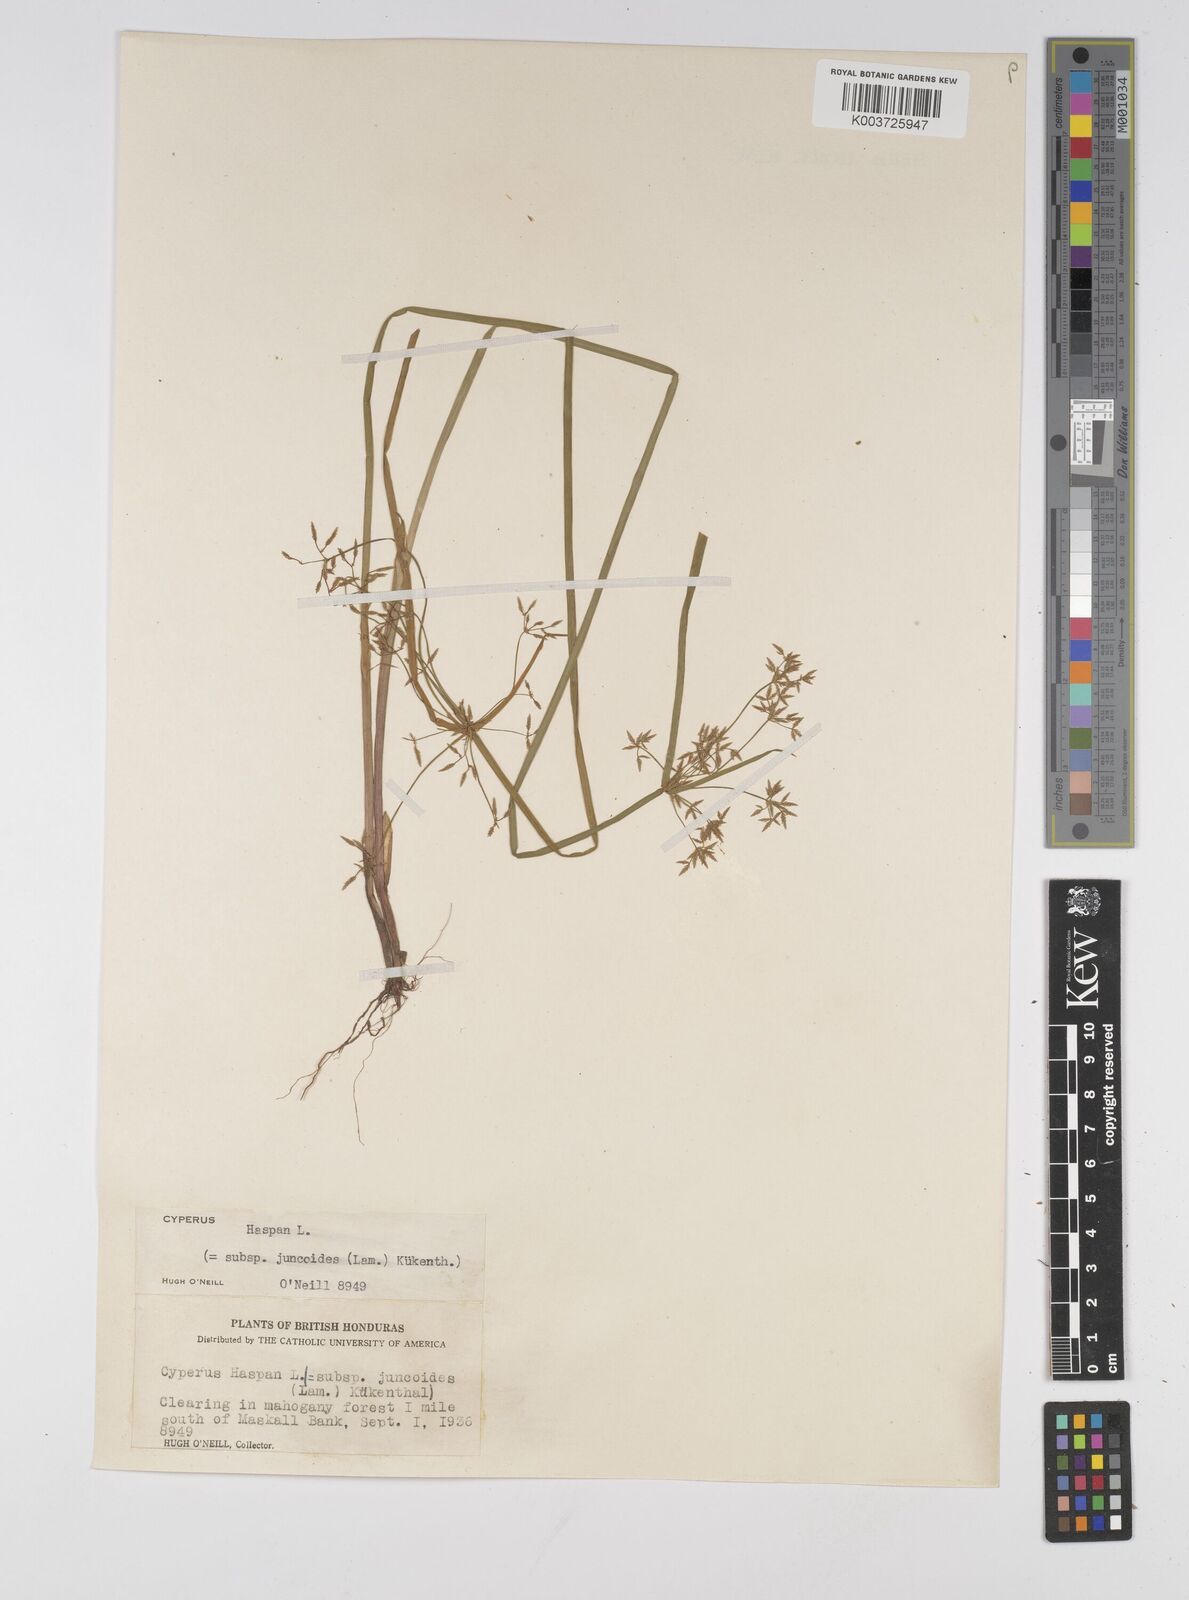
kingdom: Plantae
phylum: Tracheophyta
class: Liliopsida
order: Poales
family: Cyperaceae
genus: Cyperus
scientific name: Cyperus haspan
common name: Haspan flatsedge
